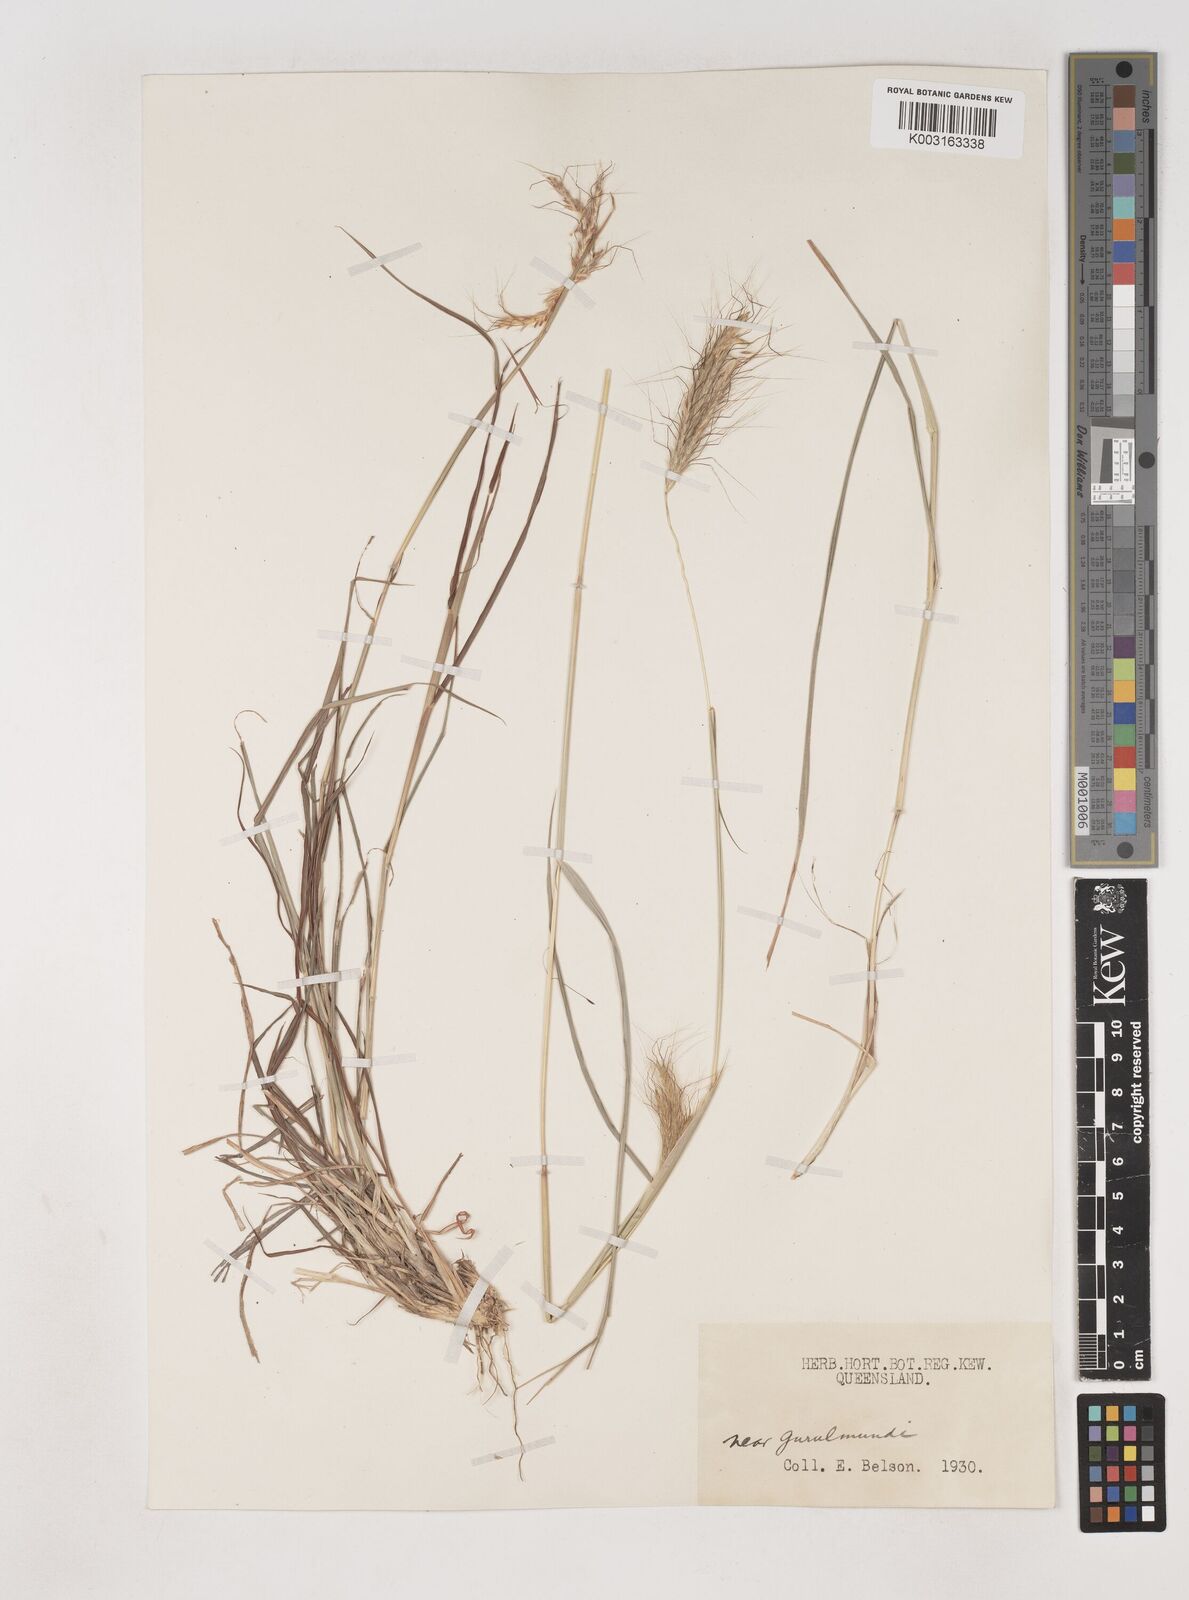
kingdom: Plantae
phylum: Tracheophyta
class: Liliopsida
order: Poales
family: Poaceae
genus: Dichanthium
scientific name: Dichanthium sericeum
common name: Silky bluestem
